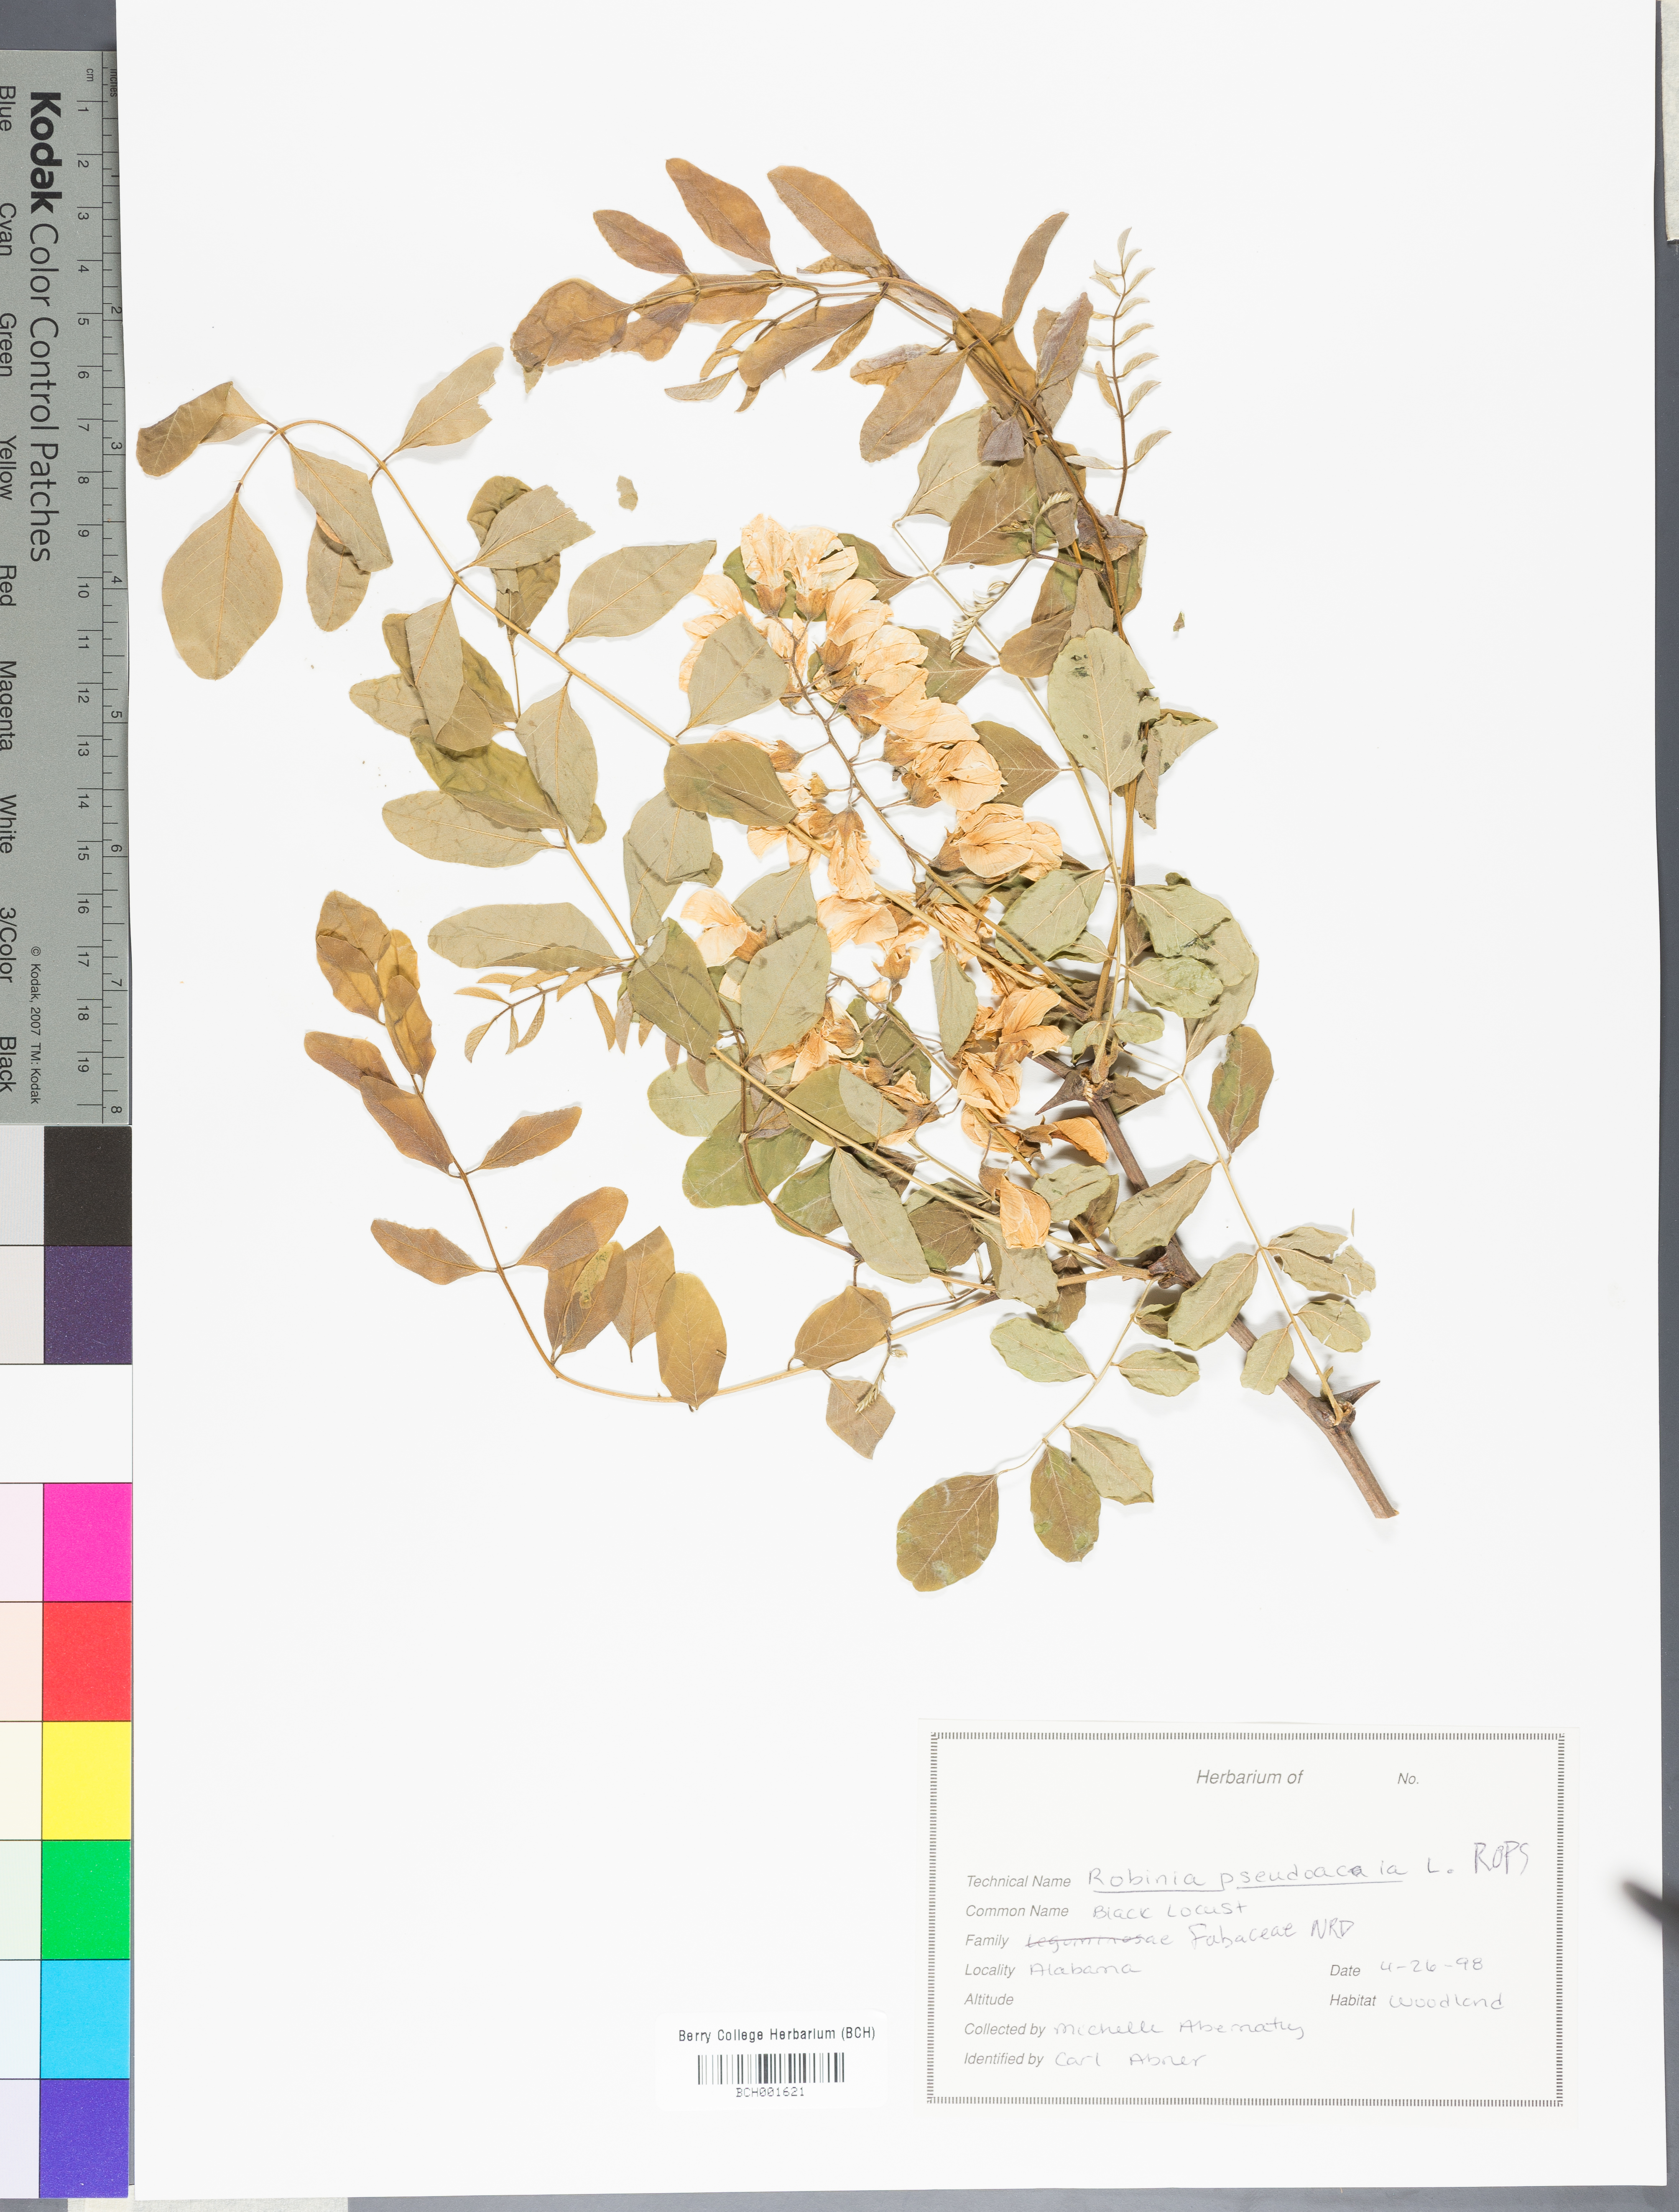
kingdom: Plantae
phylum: Tracheophyta
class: Magnoliopsida
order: Fabales
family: Fabaceae
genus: Robinia
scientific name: Robinia pseudoacacia
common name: Black locust
